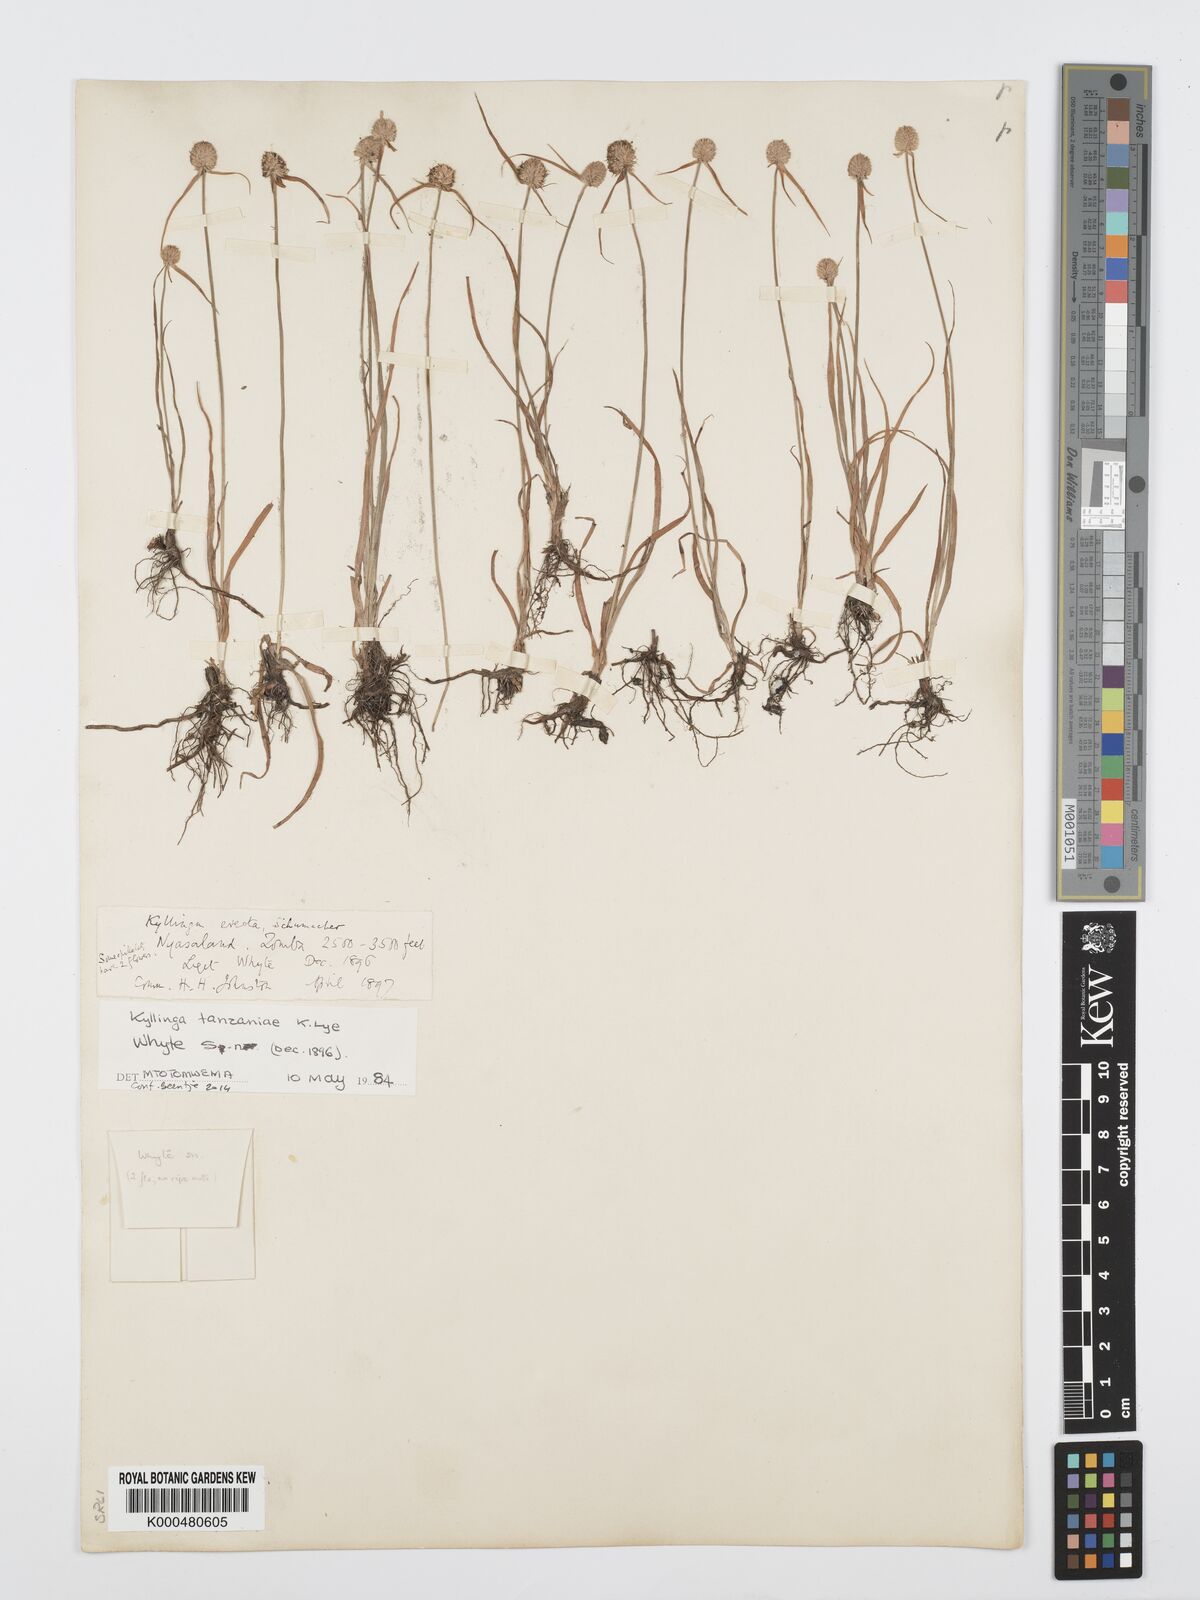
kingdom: Plantae
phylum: Tracheophyta
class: Liliopsida
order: Poales
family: Cyperaceae
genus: Cyperus
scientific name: Cyperus tanzaniae
